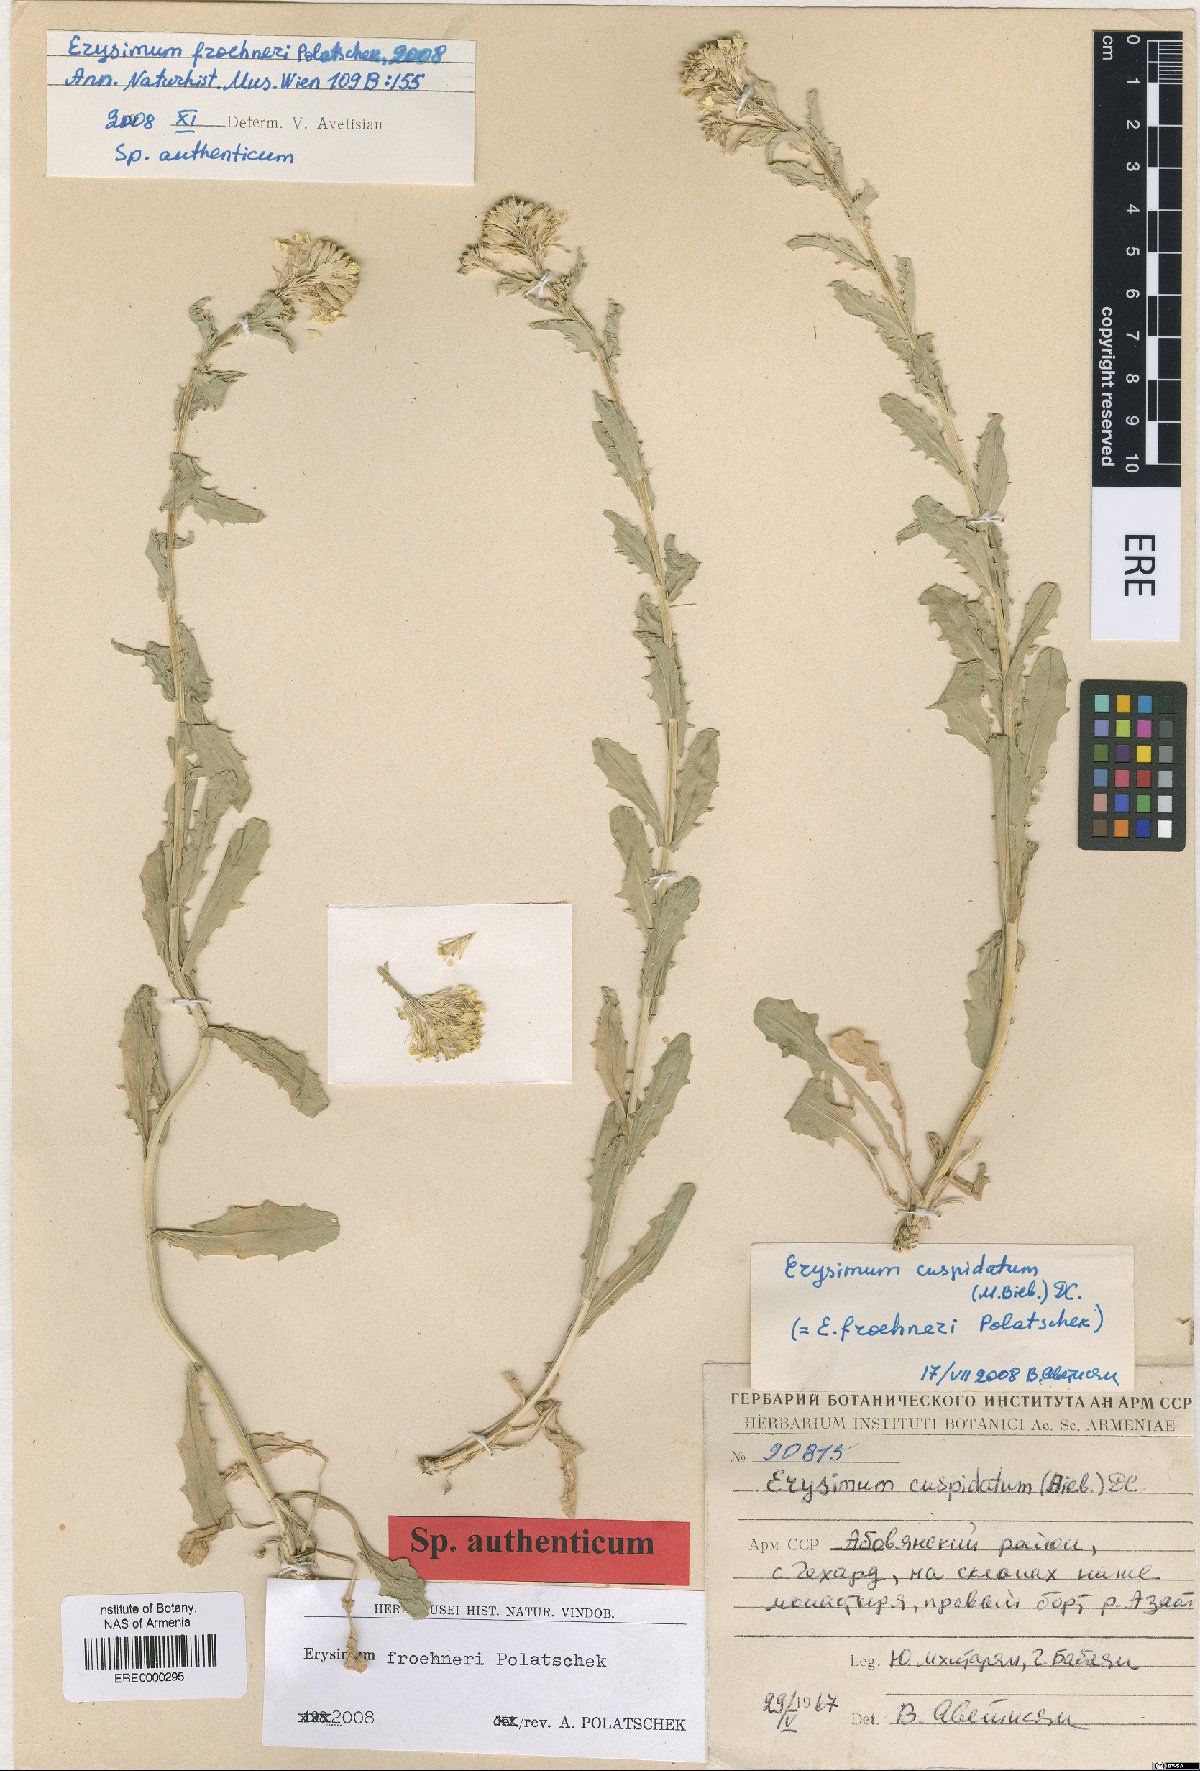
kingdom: Plantae
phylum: Tracheophyta
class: Magnoliopsida
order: Brassicales
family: Brassicaceae
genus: Erysimum
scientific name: Erysimum froehneri
